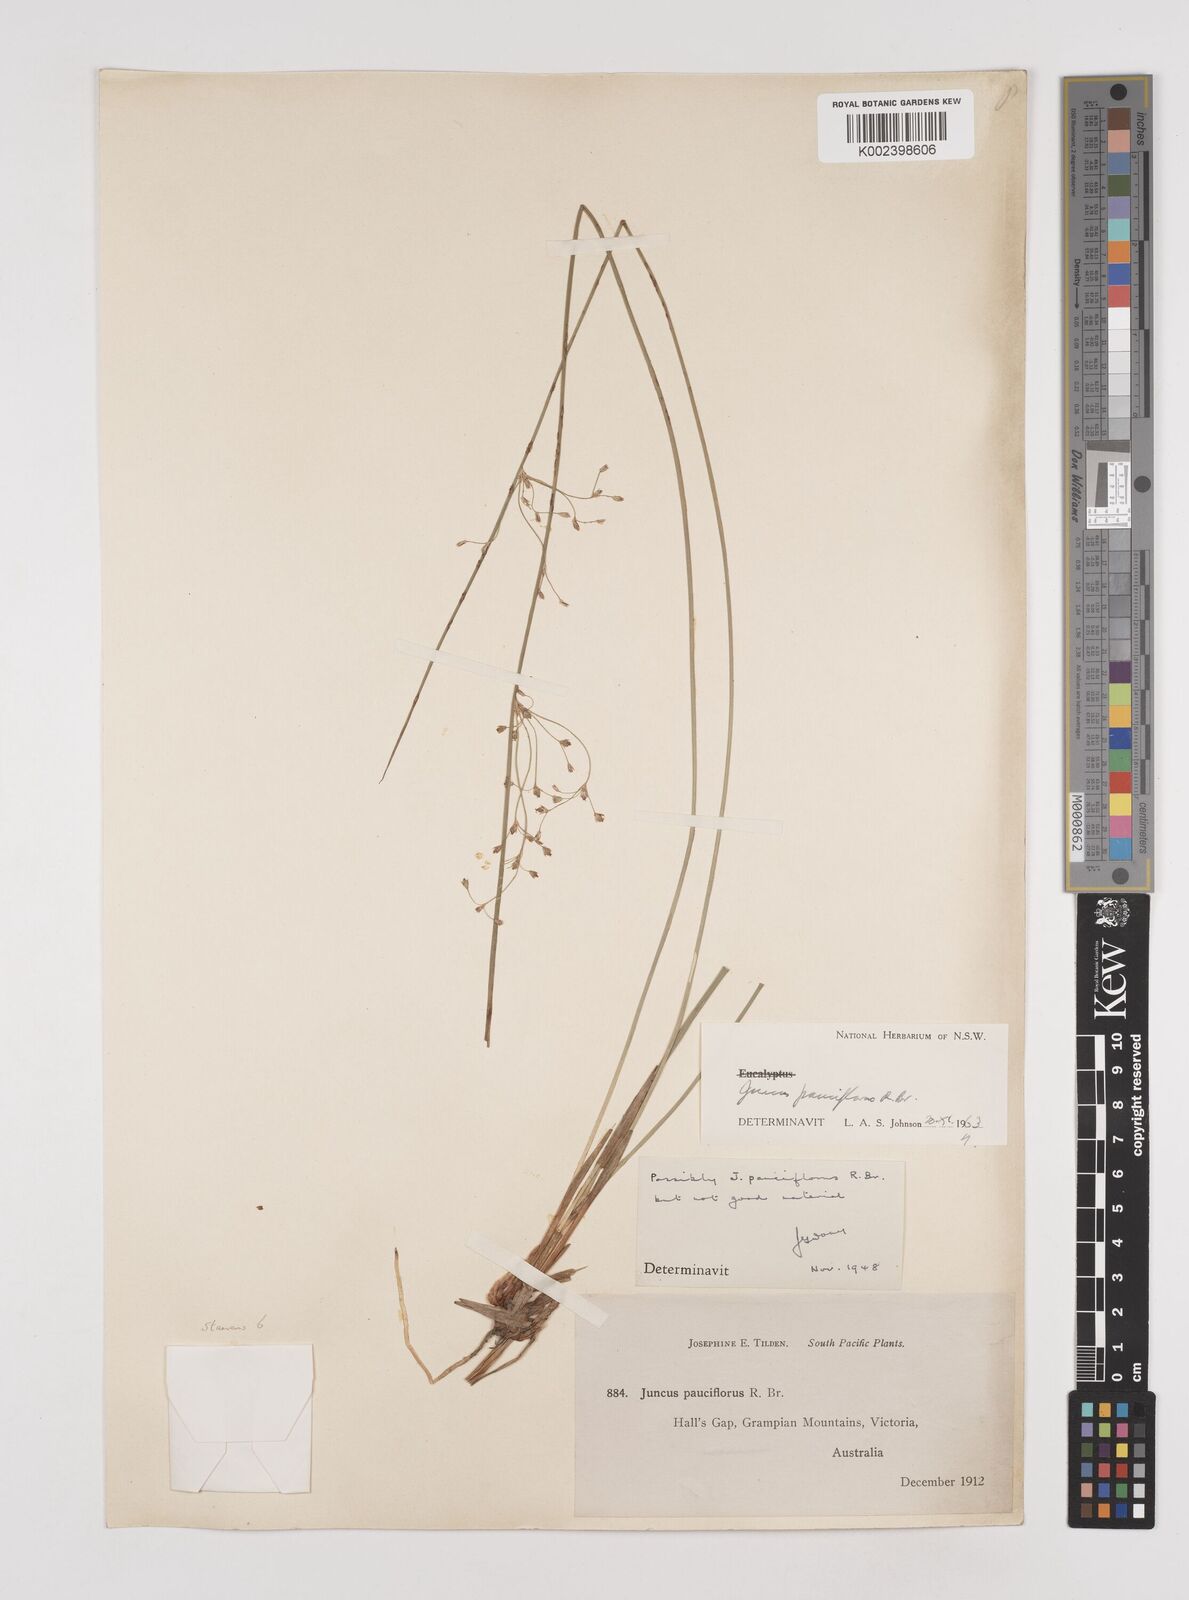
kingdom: Plantae
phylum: Tracheophyta
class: Liliopsida
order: Poales
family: Juncaceae
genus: Juncus
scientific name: Juncus pauciflorus
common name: Loose-flowered rush
